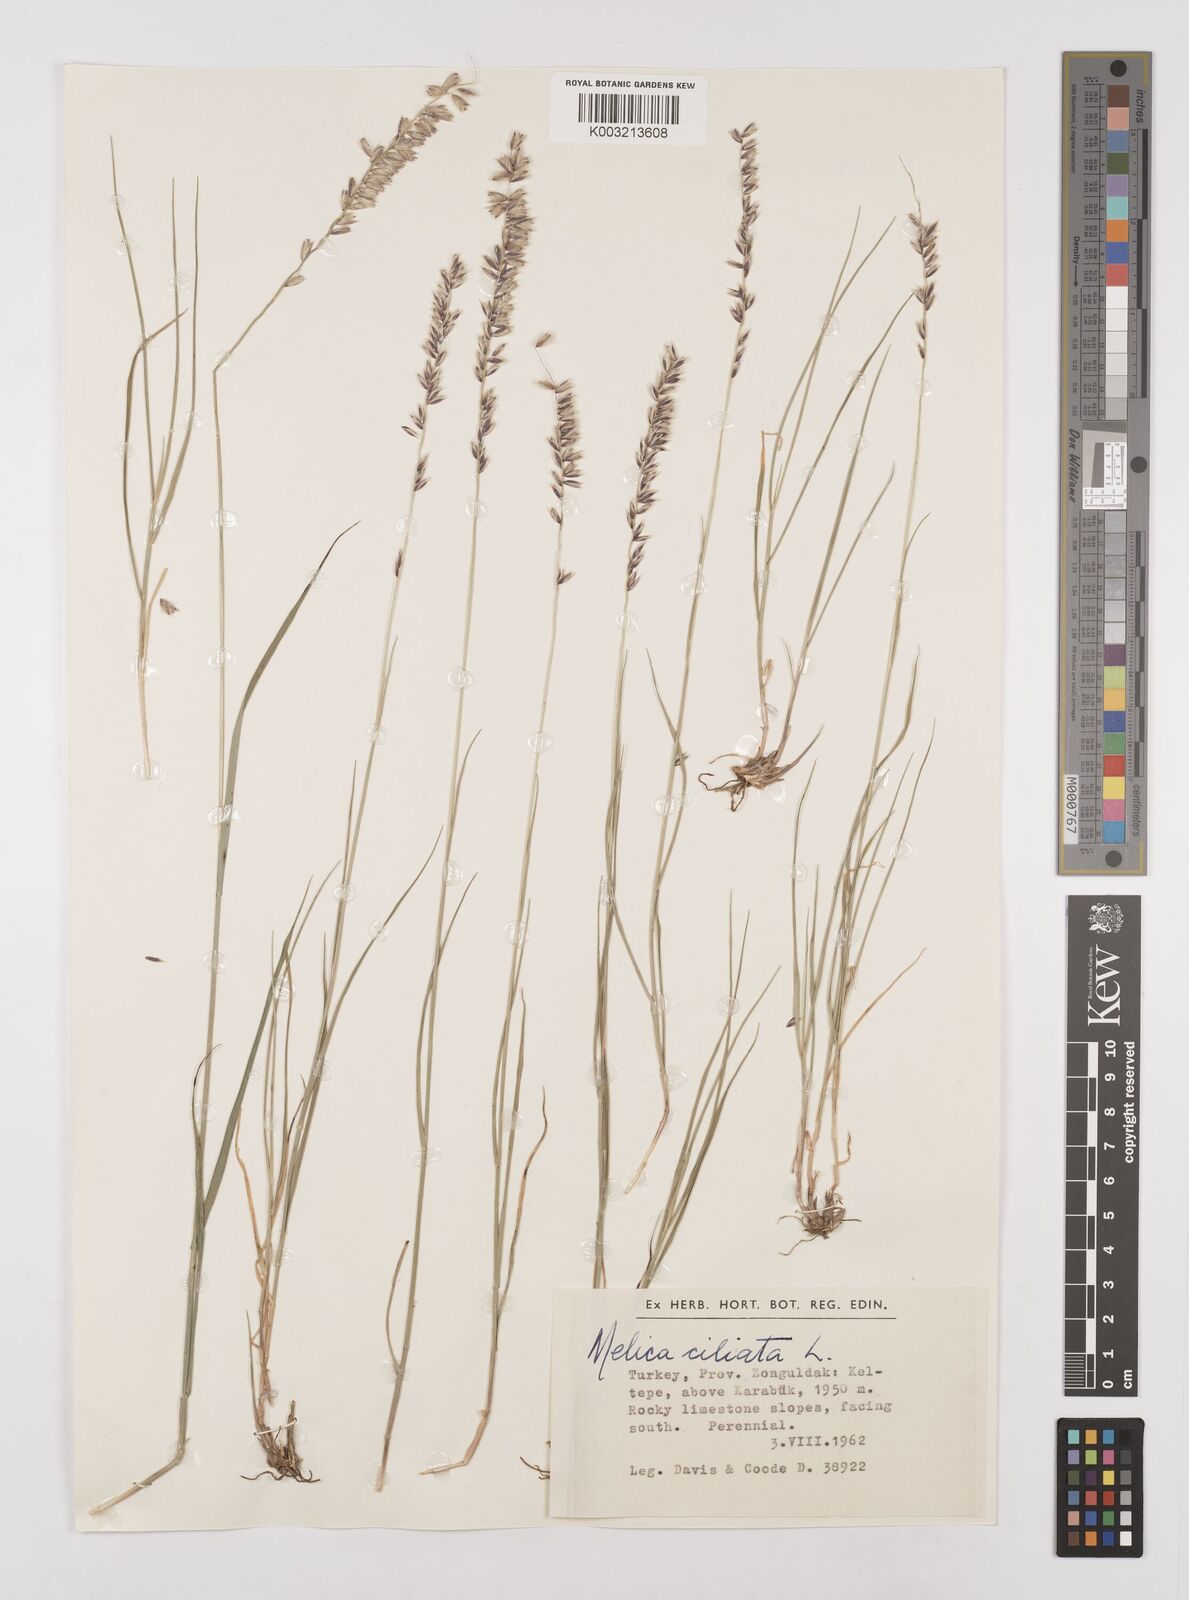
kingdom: Plantae
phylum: Tracheophyta
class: Liliopsida
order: Poales
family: Poaceae
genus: Melica
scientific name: Melica ciliata
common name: Hairy melicgrass
